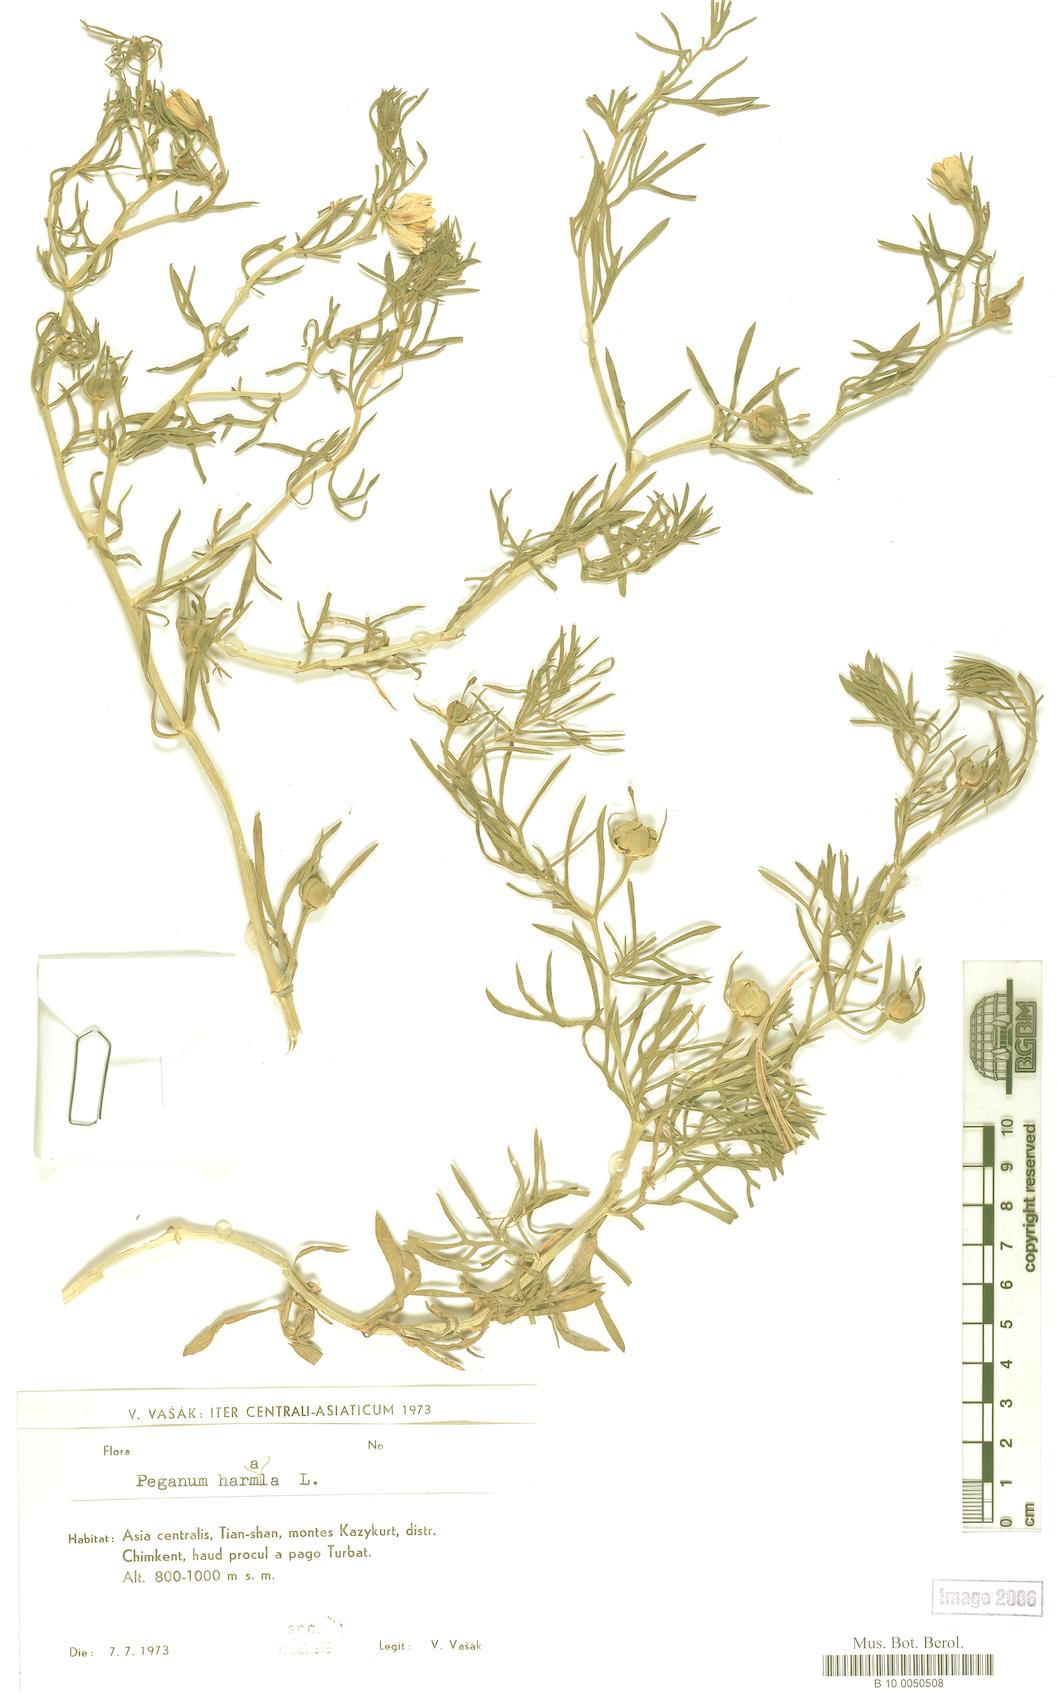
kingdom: Plantae
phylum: Tracheophyta
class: Magnoliopsida
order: Sapindales
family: Tetradiclidaceae
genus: Peganum
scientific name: Peganum harmala
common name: Harmal peganum
